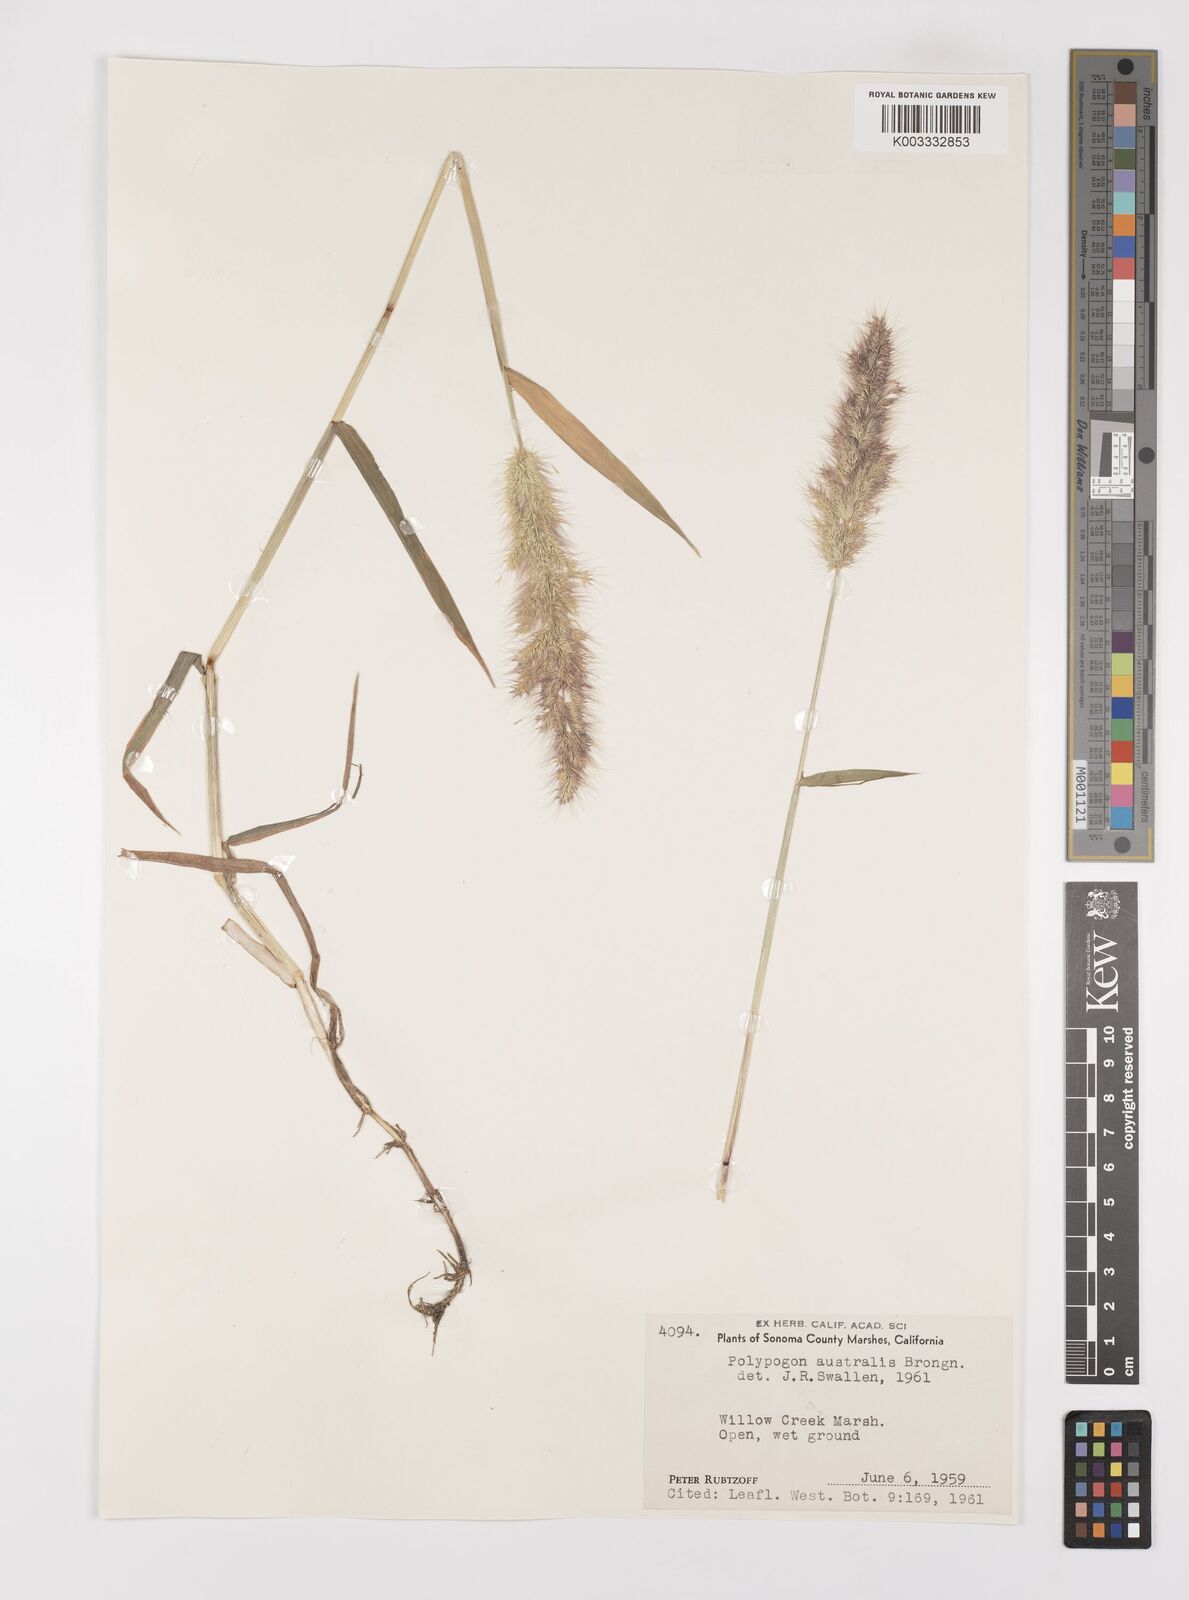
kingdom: Plantae
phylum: Tracheophyta
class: Liliopsida
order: Poales
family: Poaceae
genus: Polypogon
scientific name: Polypogon australis
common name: Chilean rabbitsfoot grass
